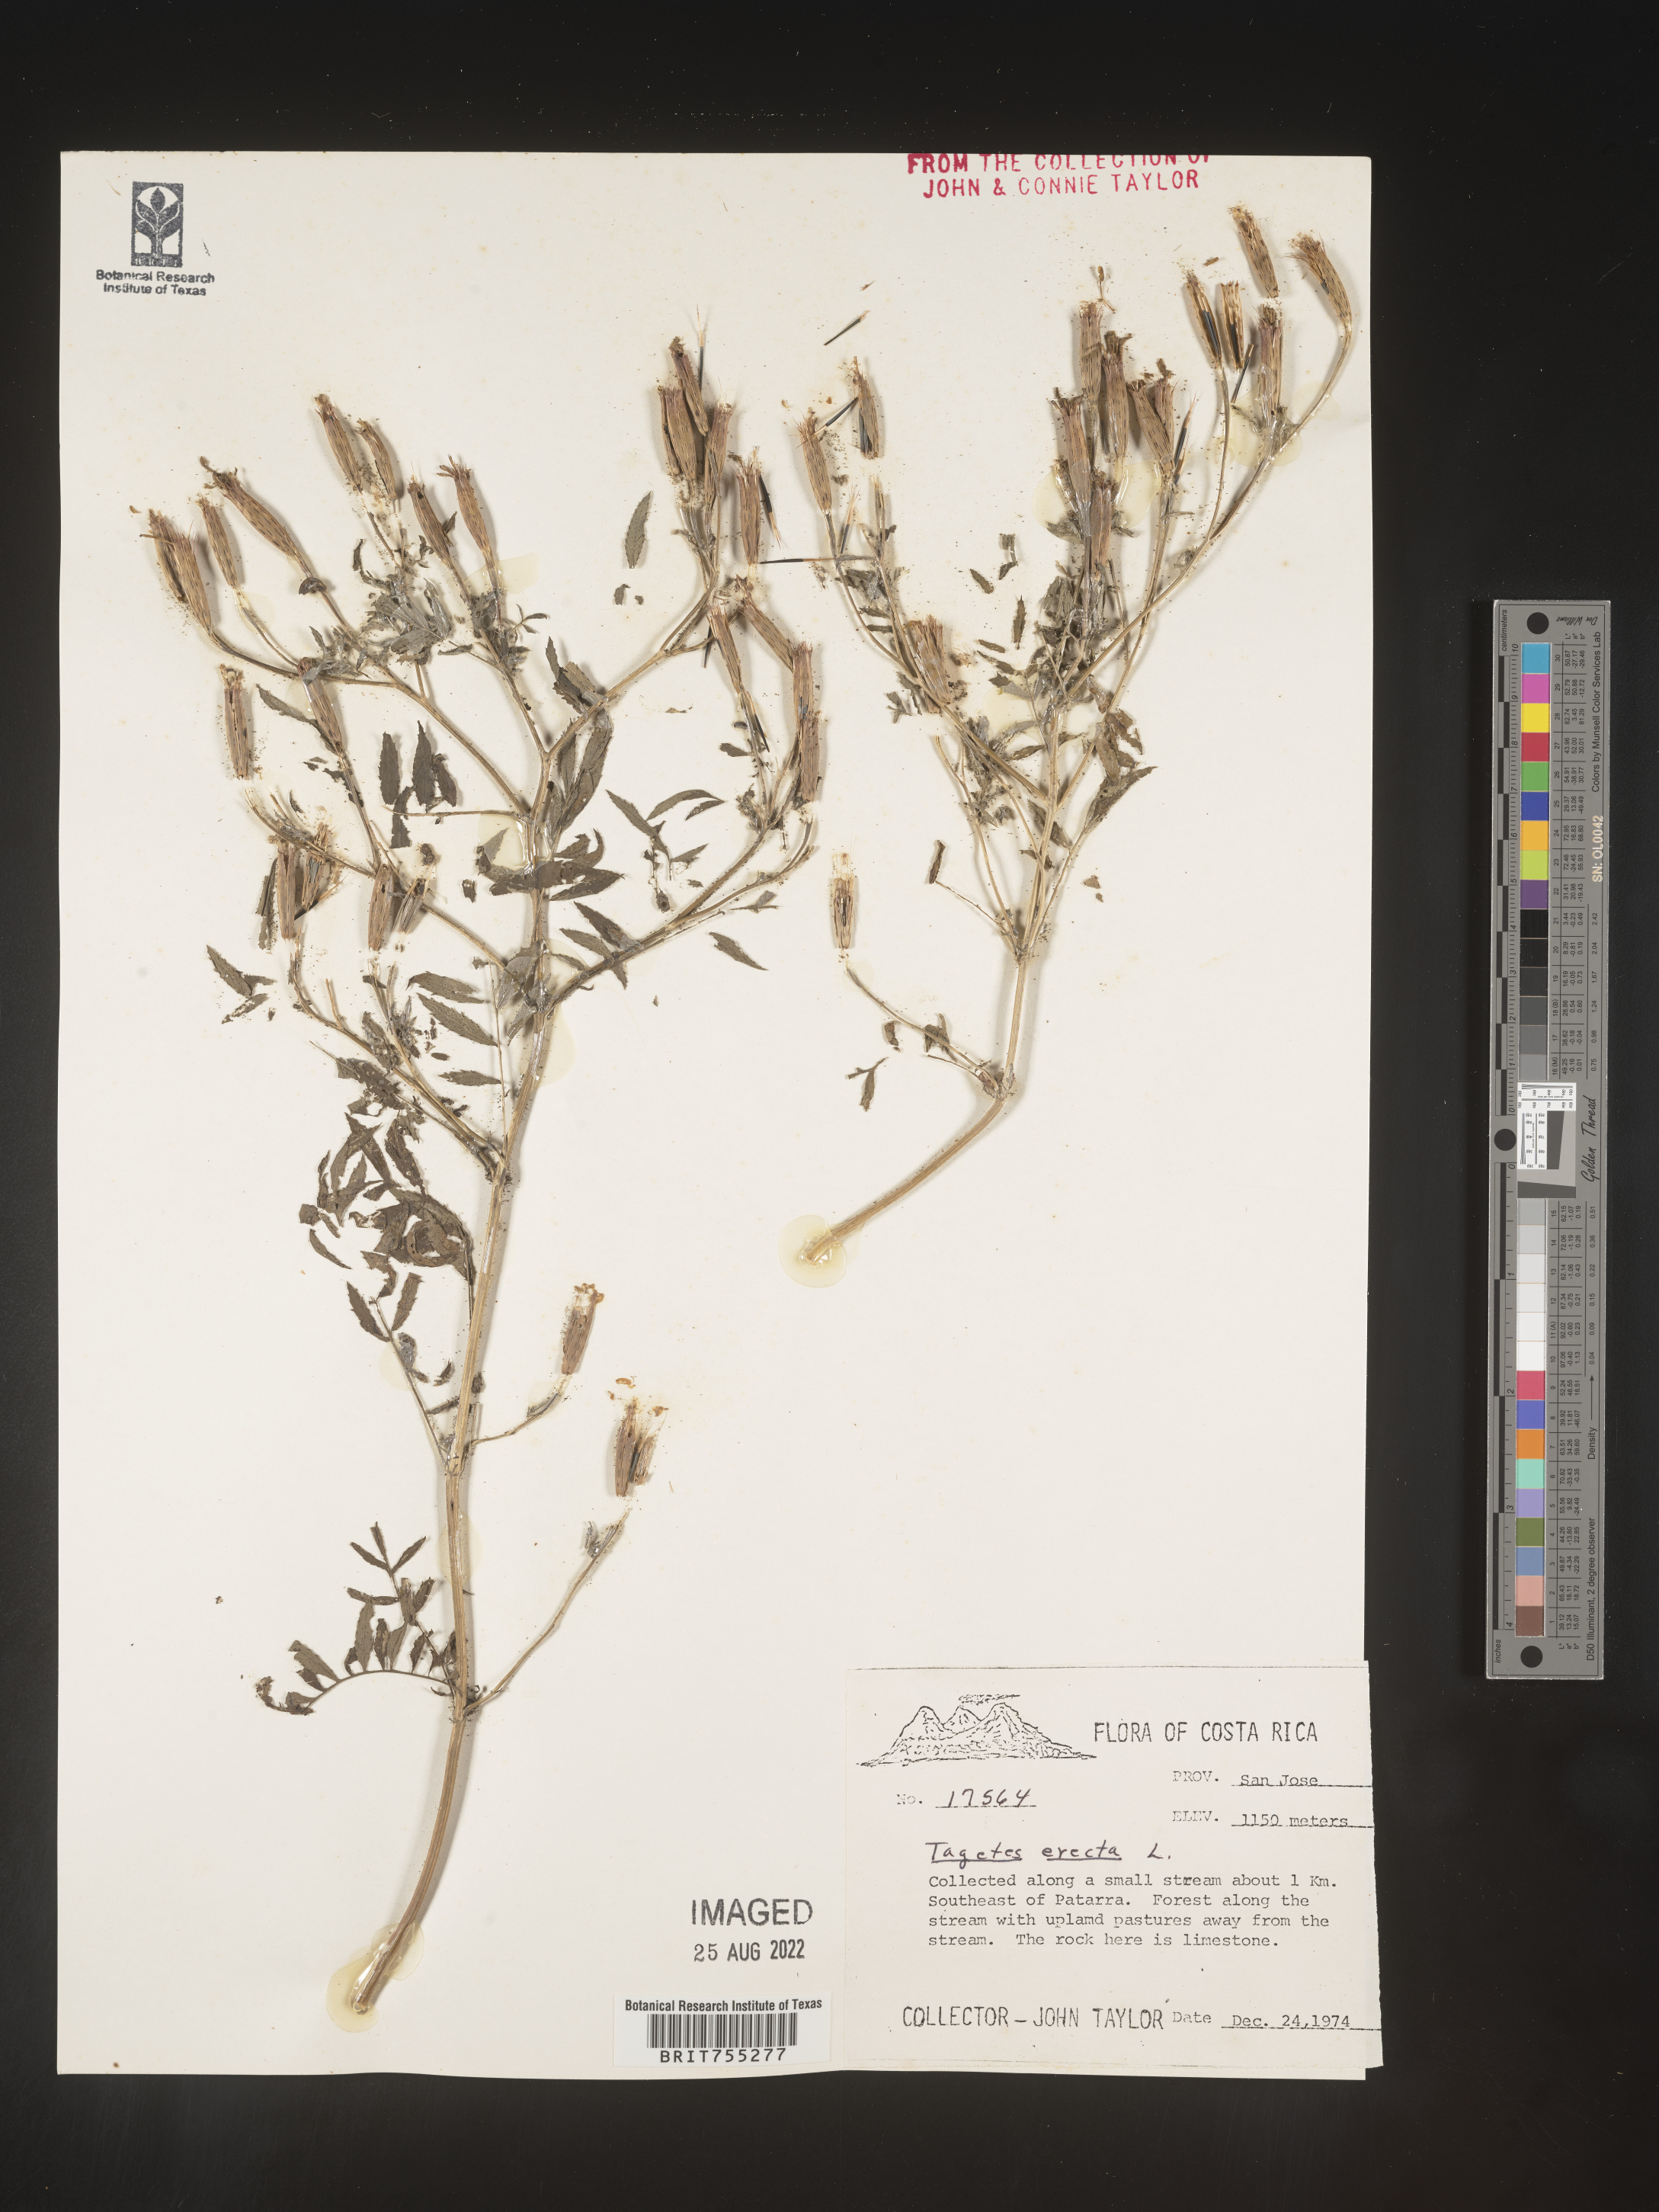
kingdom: Plantae
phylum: Tracheophyta
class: Magnoliopsida
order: Asterales
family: Asteraceae
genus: Tagetes
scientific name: Tagetes
